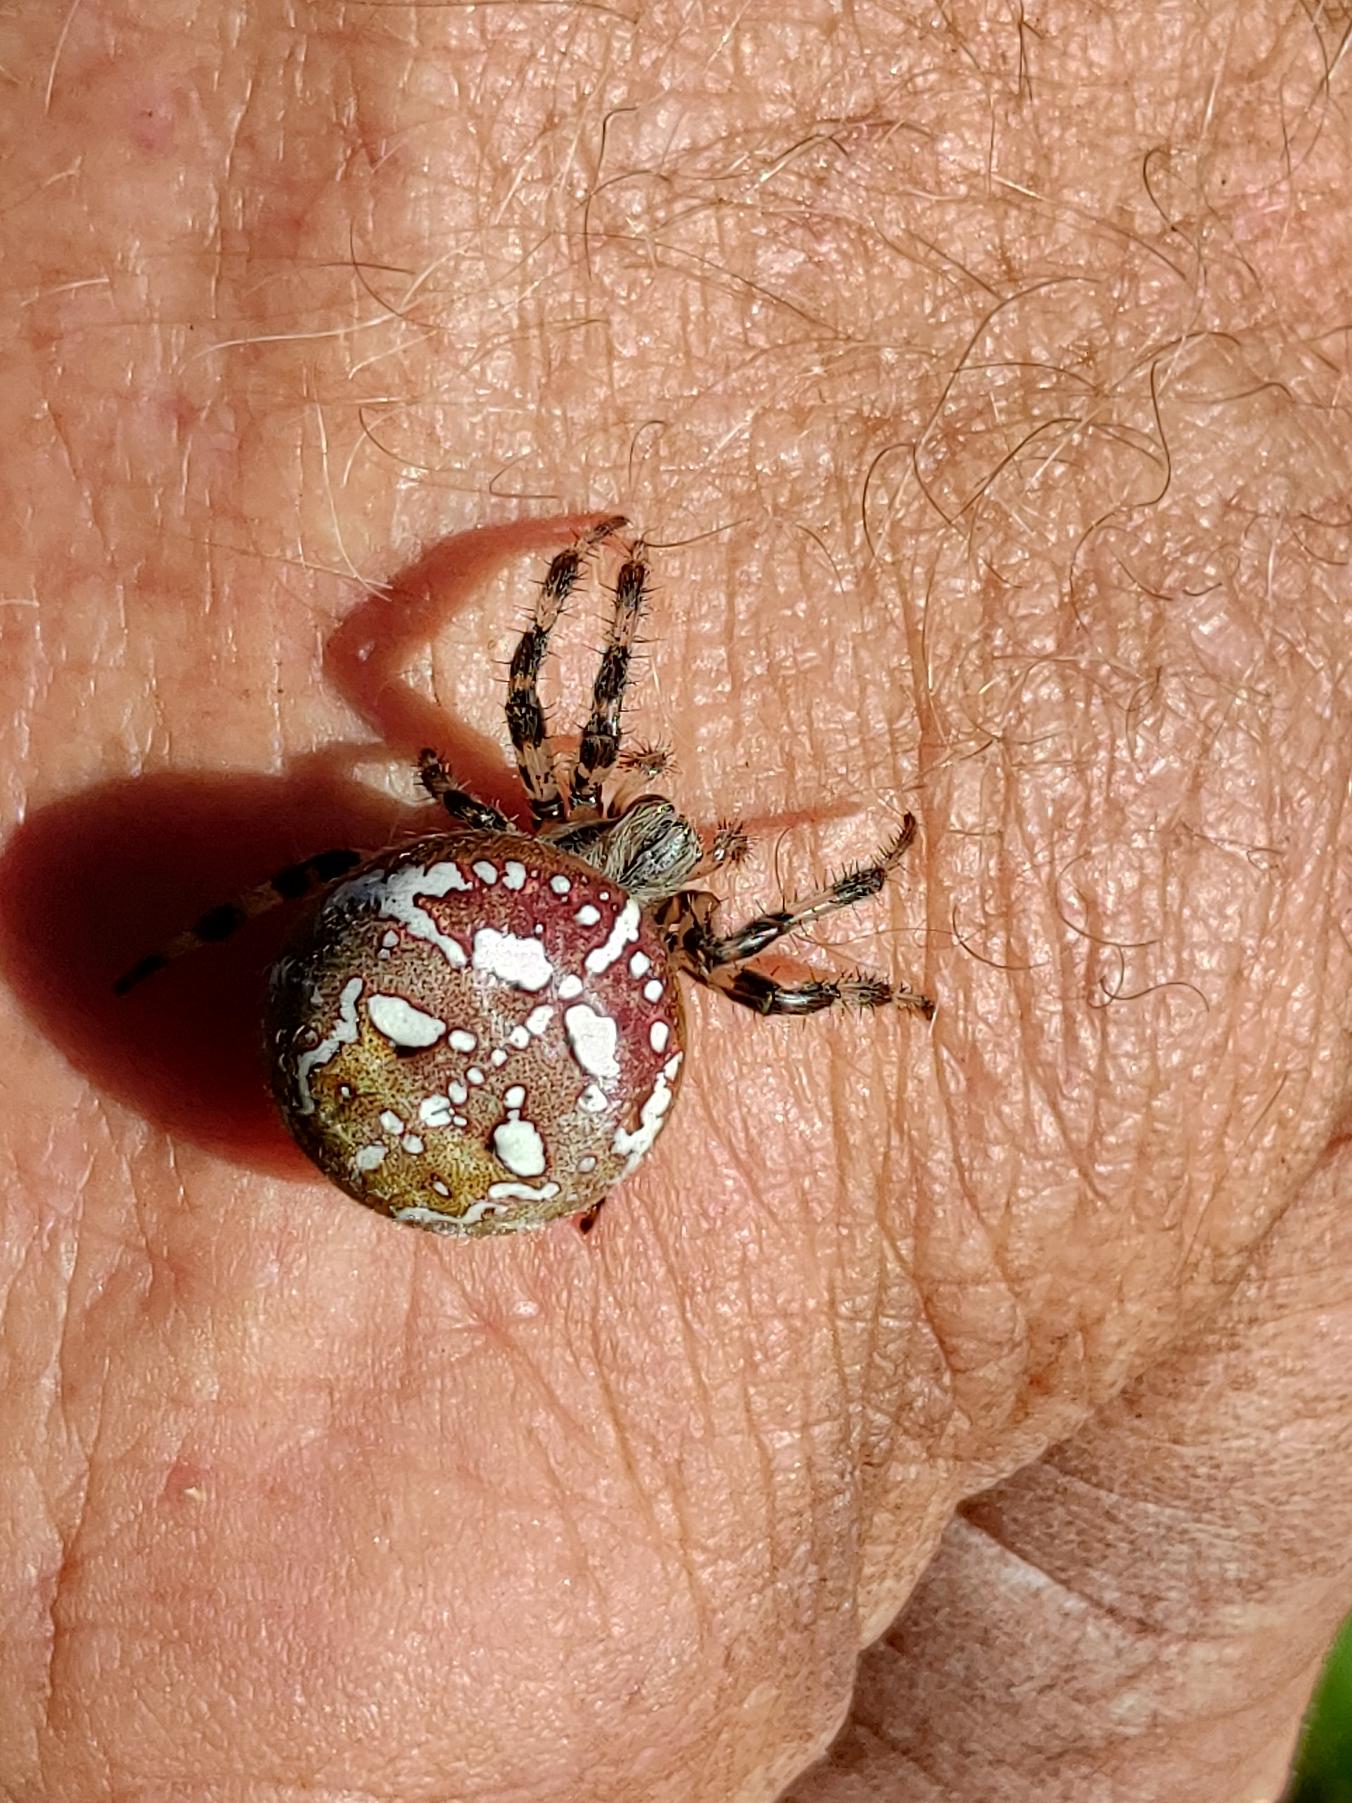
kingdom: Animalia
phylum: Arthropoda
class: Arachnida
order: Araneae
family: Araneidae
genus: Araneus
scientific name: Araneus quadratus
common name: Kvadratedderkop
